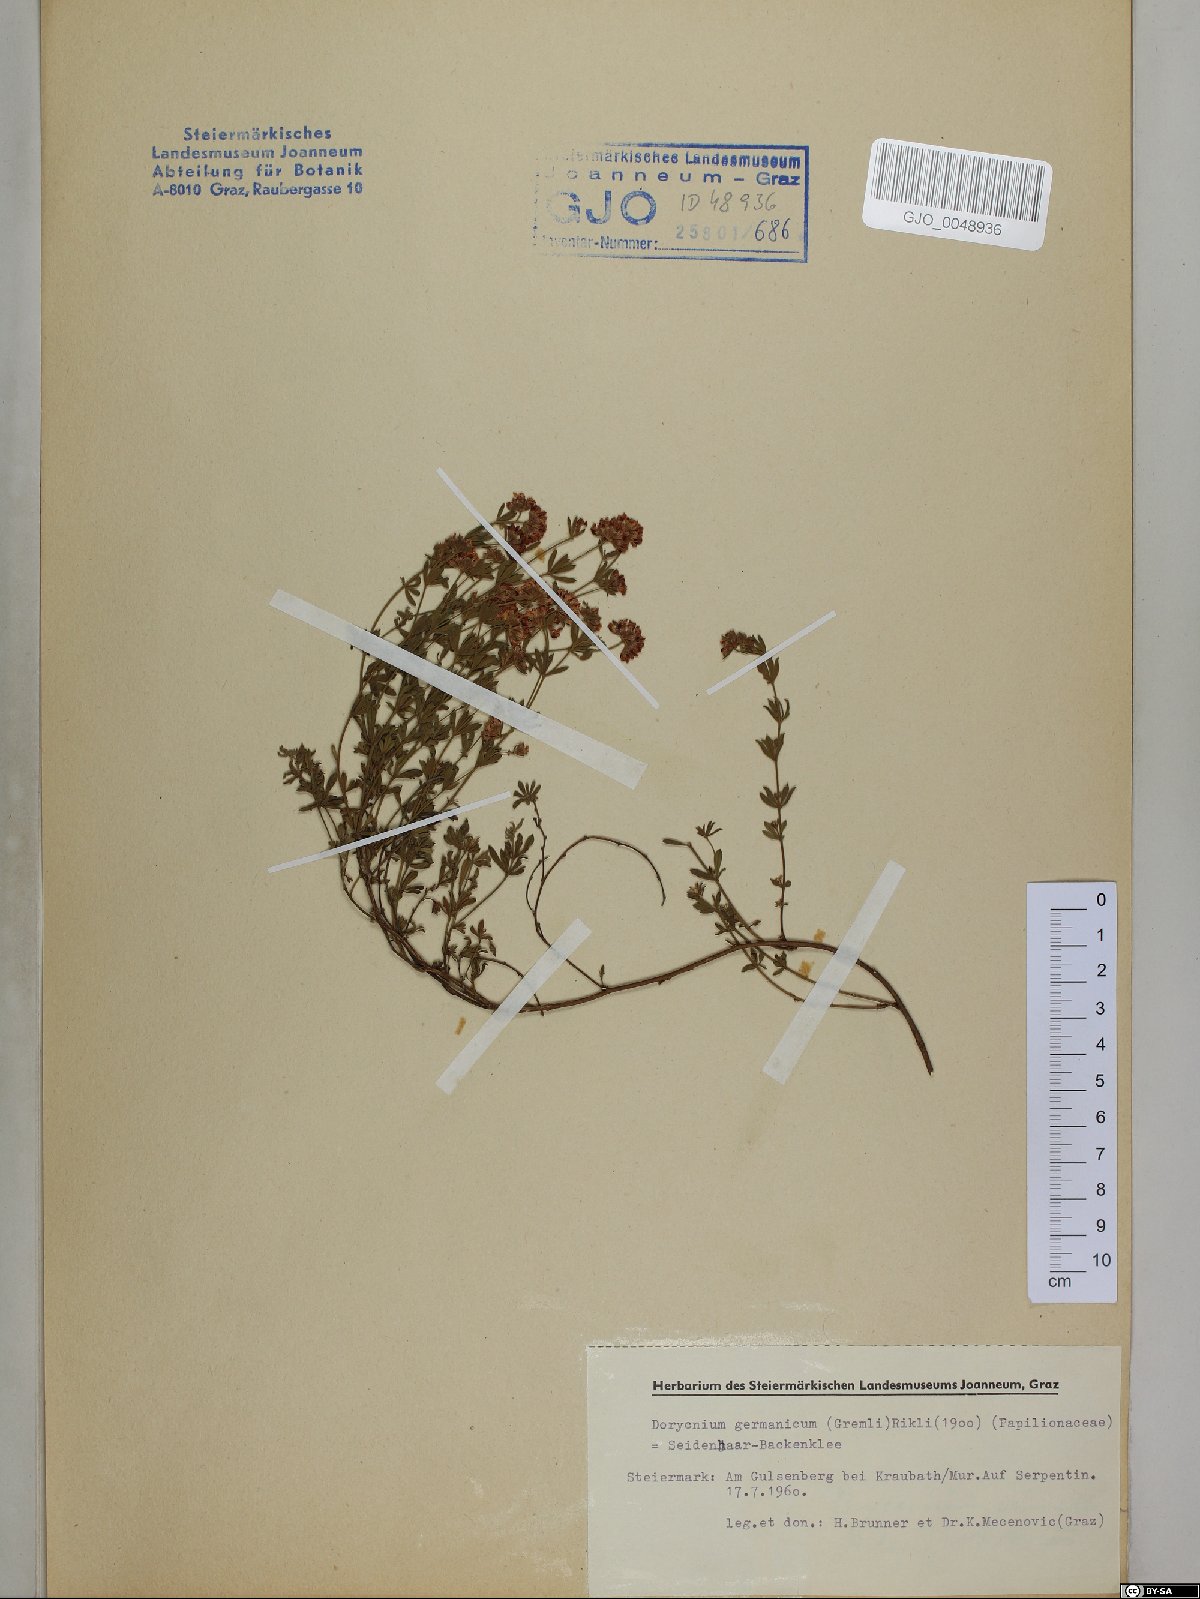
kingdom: Plantae
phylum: Tracheophyta
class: Magnoliopsida
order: Fabales
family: Fabaceae
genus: Lotus
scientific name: Lotus germanicus
